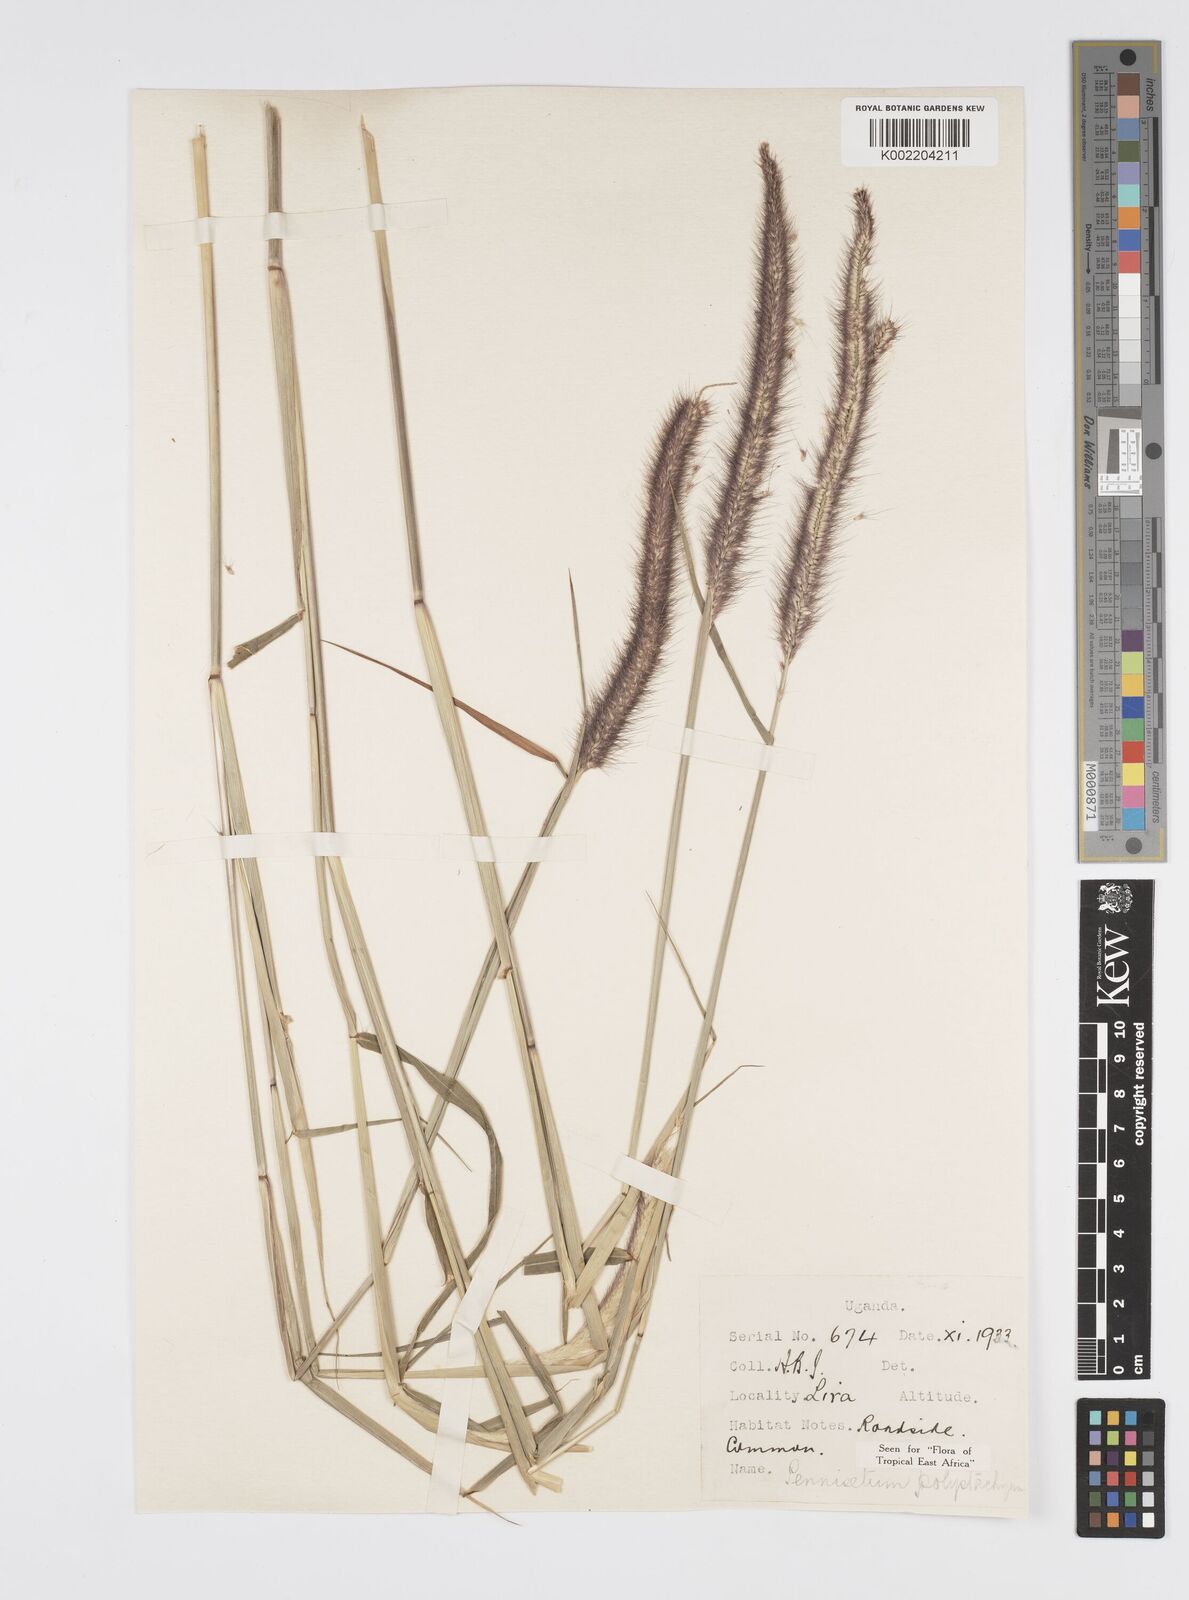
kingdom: Plantae
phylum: Tracheophyta
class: Liliopsida
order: Poales
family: Poaceae
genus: Setaria
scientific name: Setaria parviflora
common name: Knotroot bristle-grass
